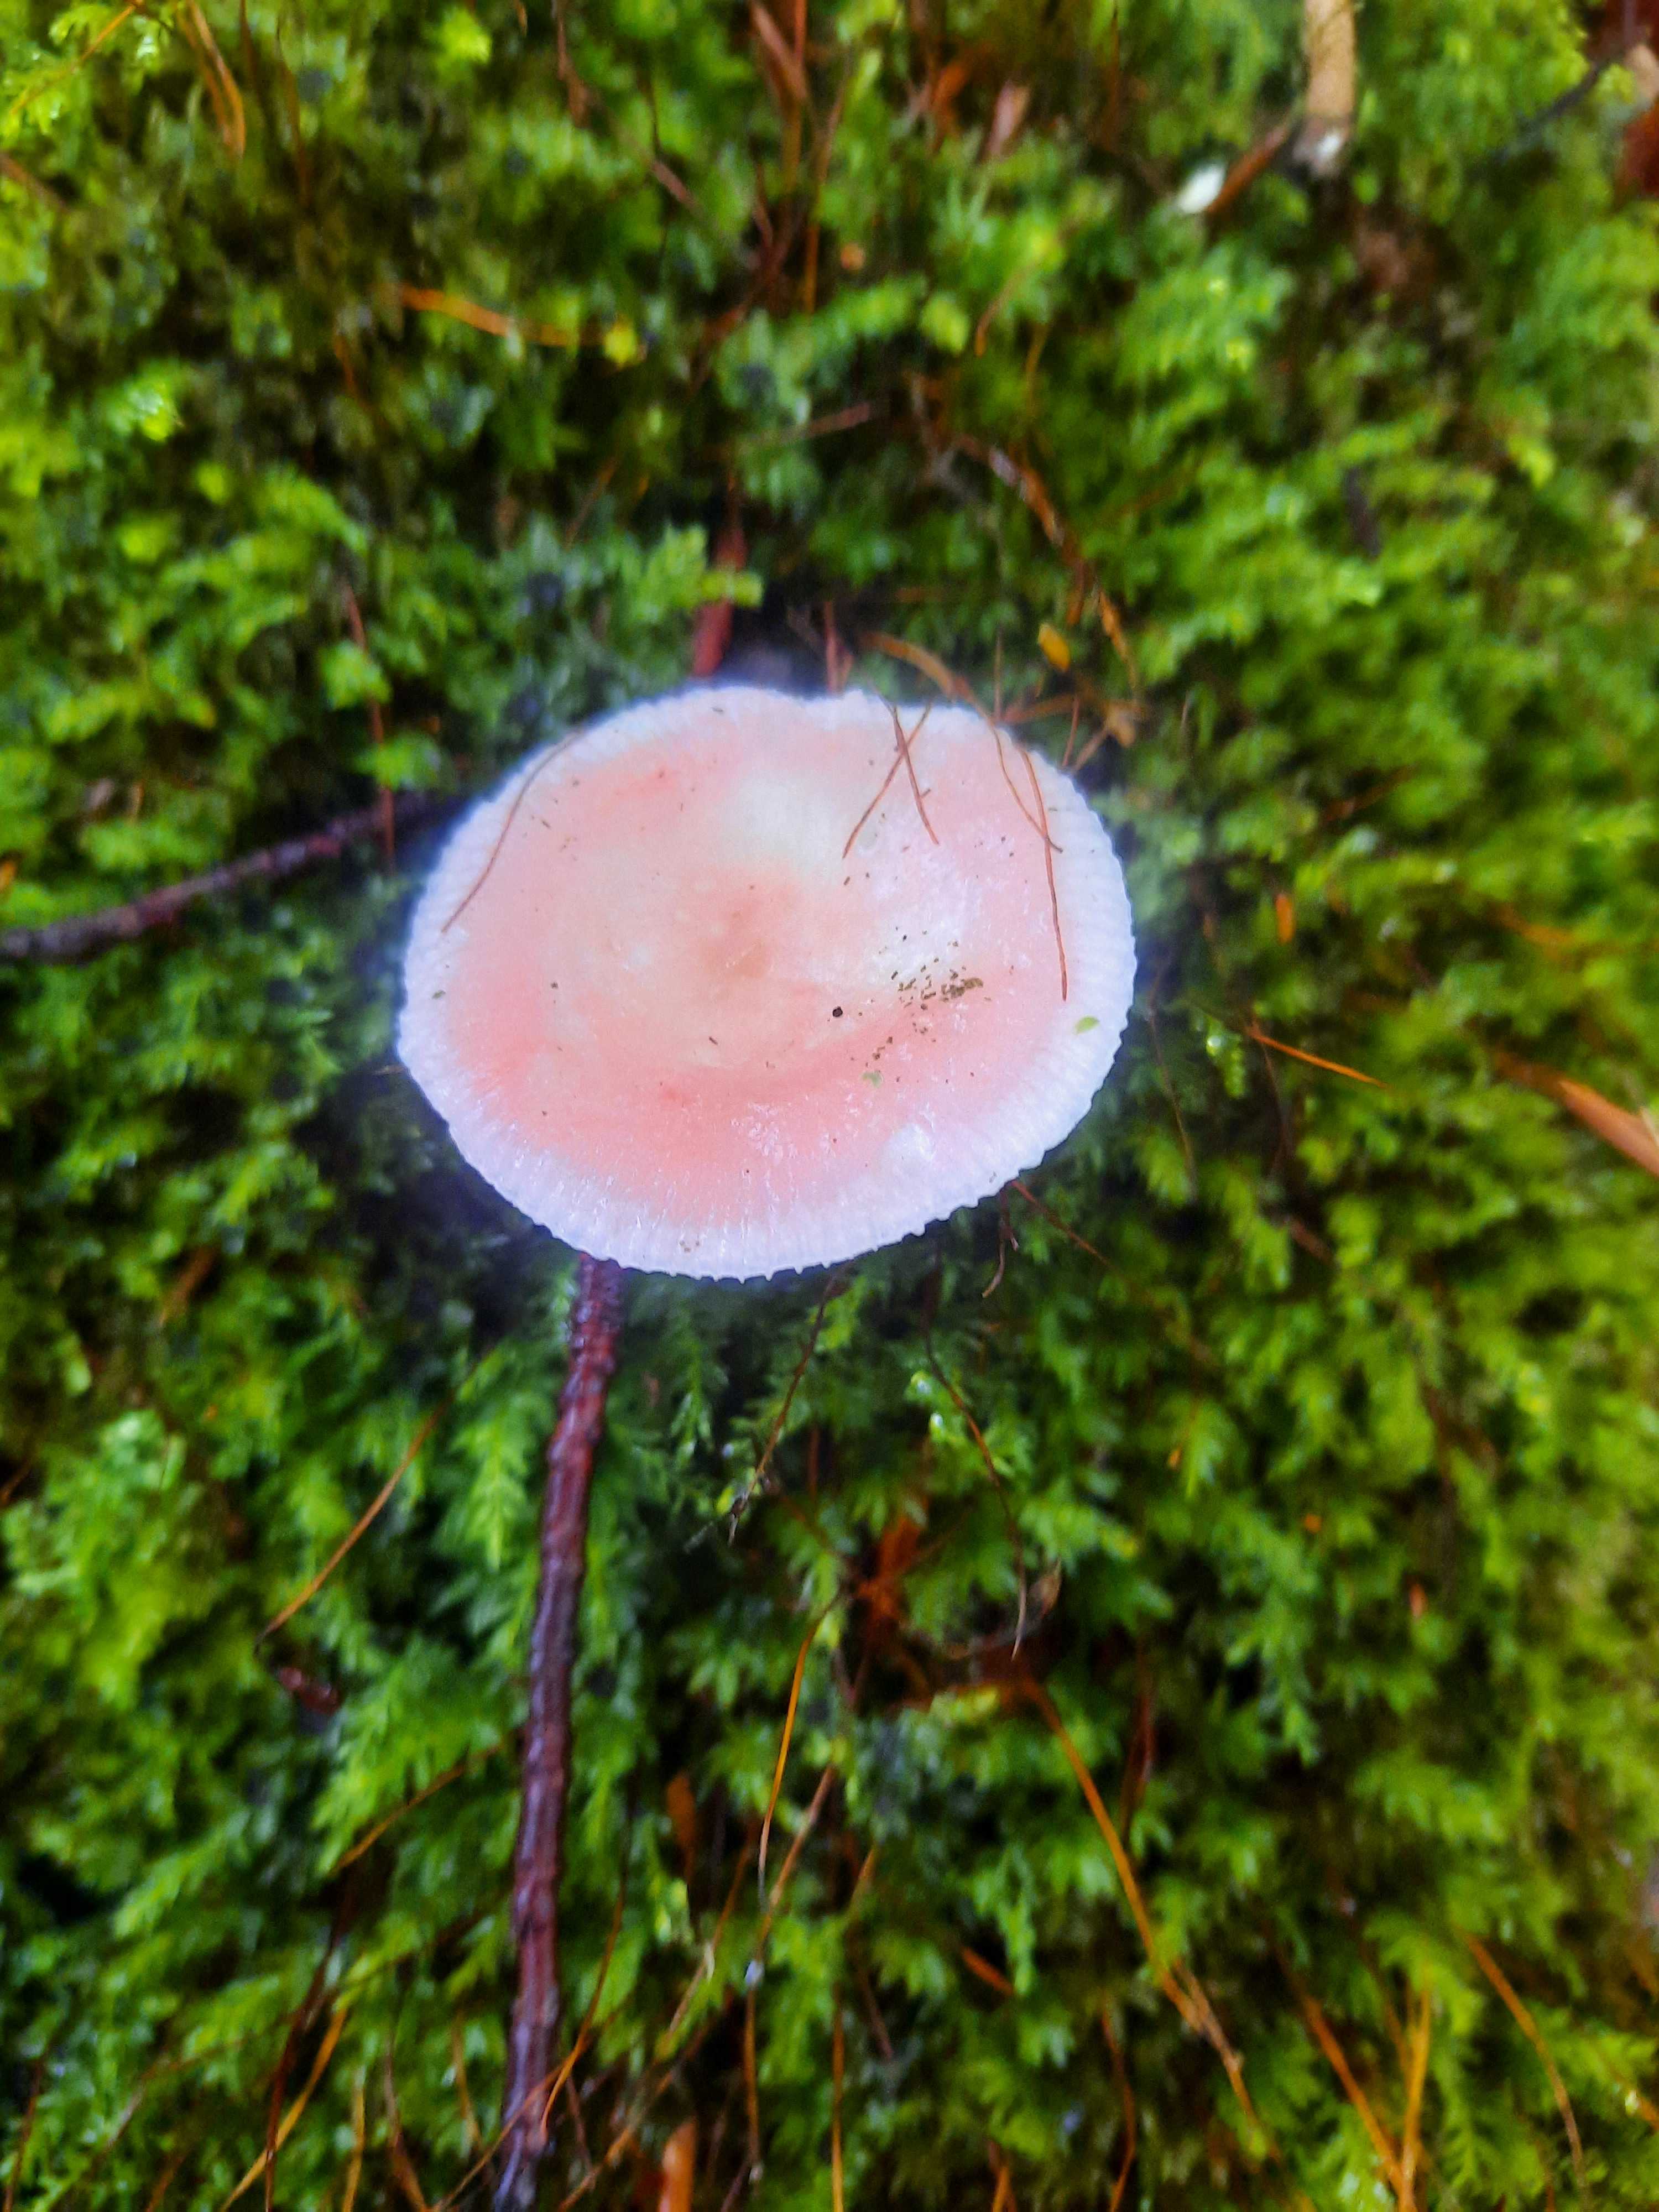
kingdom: Fungi
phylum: Basidiomycota
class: Agaricomycetes
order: Russulales
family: Russulaceae
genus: Russula
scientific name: Russula
